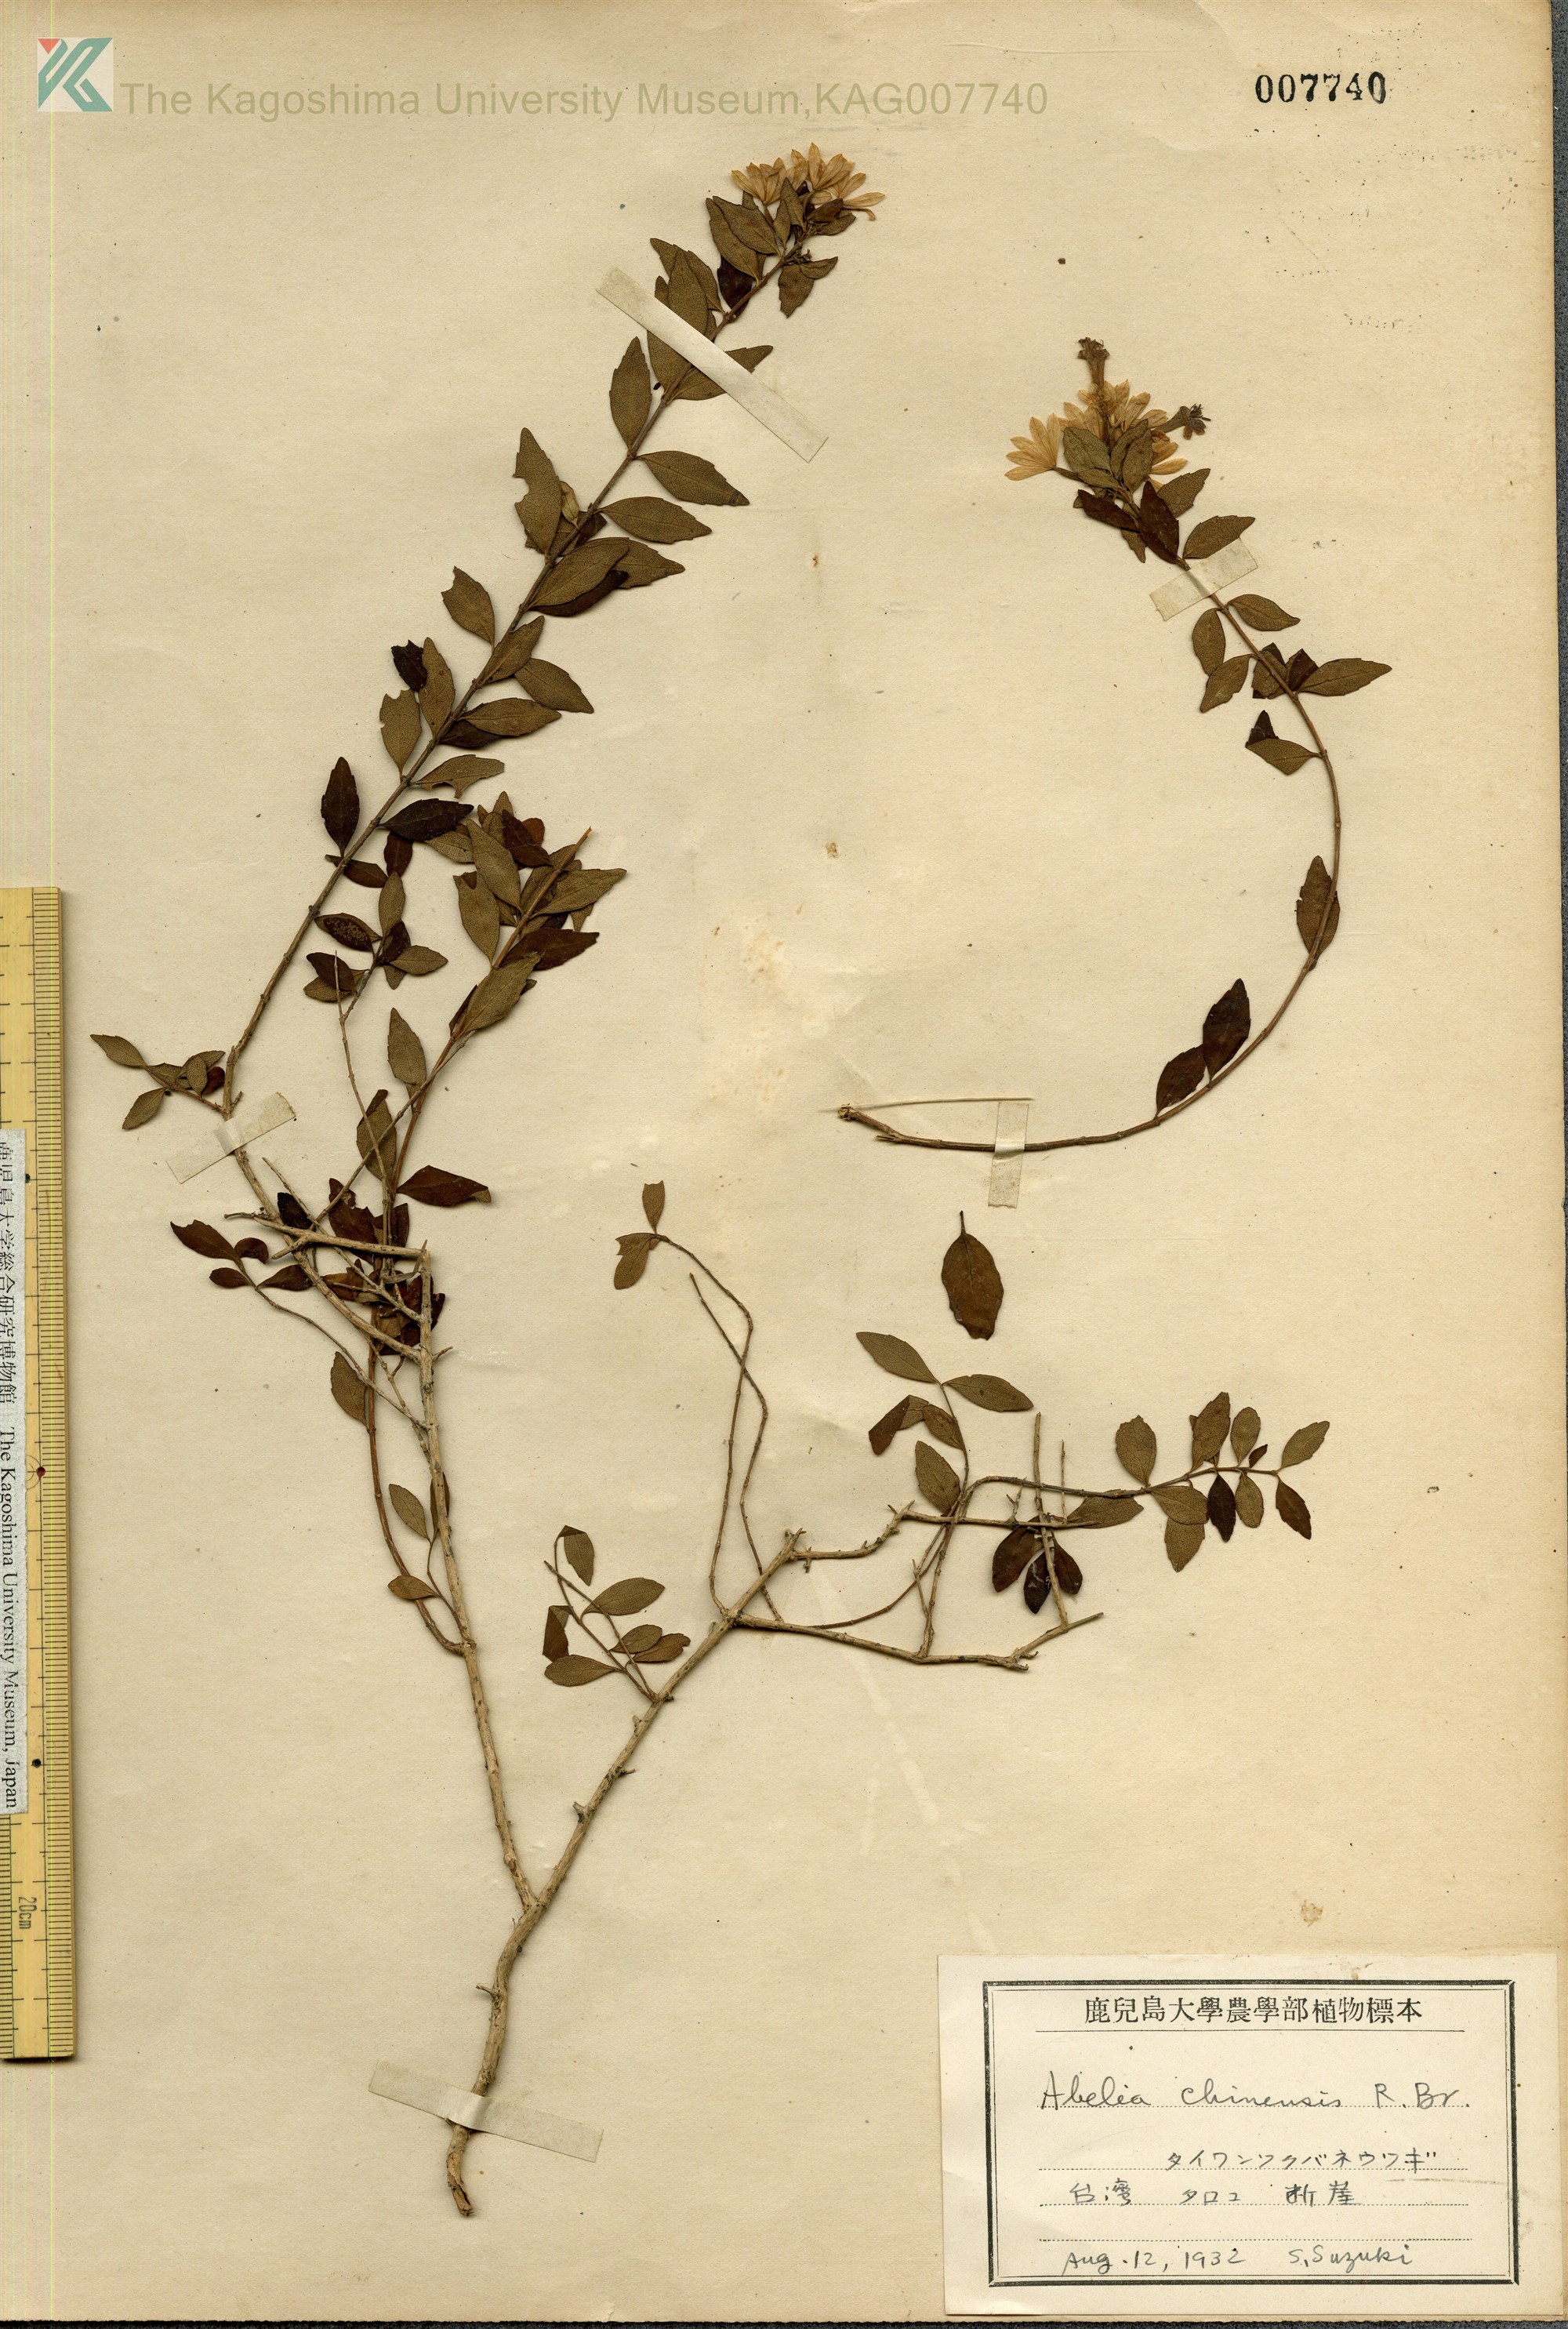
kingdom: Plantae
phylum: Tracheophyta
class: Magnoliopsida
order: Dipsacales
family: Caprifoliaceae
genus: Abelia
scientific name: Abelia chinensis
